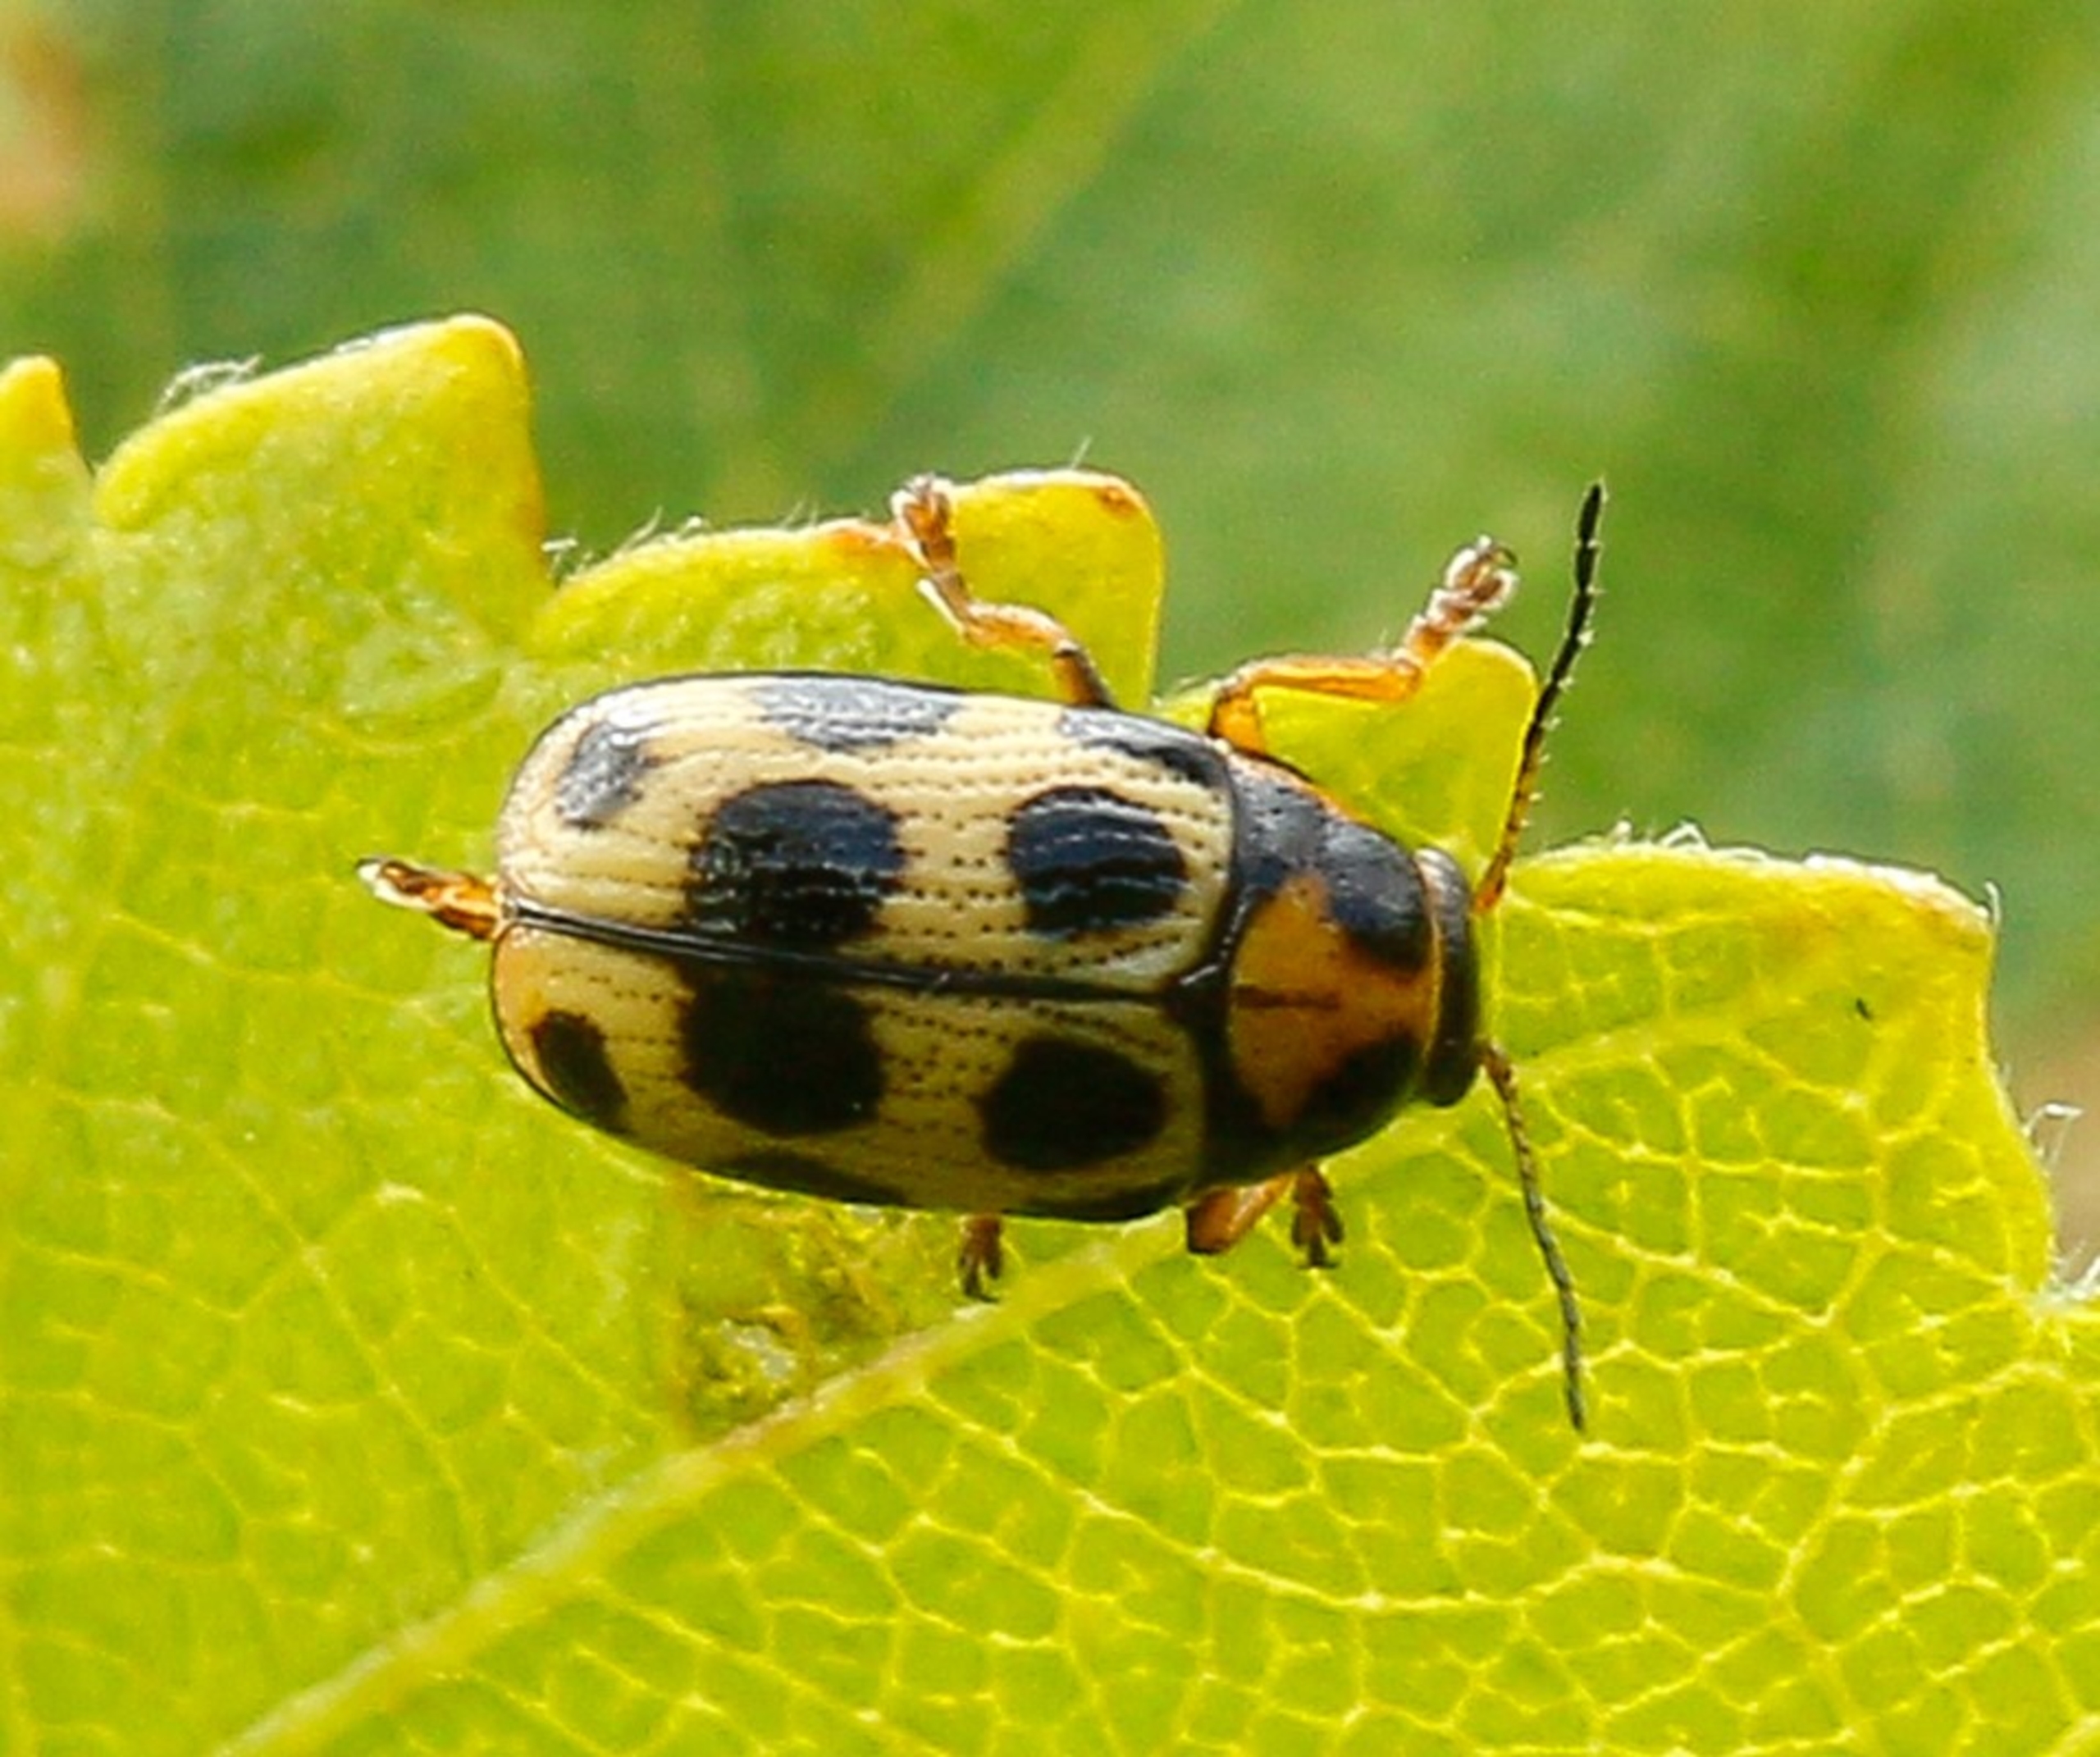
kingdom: Animalia
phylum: Arthropoda
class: Insecta
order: Coleoptera
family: Chrysomelidae
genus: Cryptocephalus
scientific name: Cryptocephalus decemmaculatus
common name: Tiplettet faldbille
